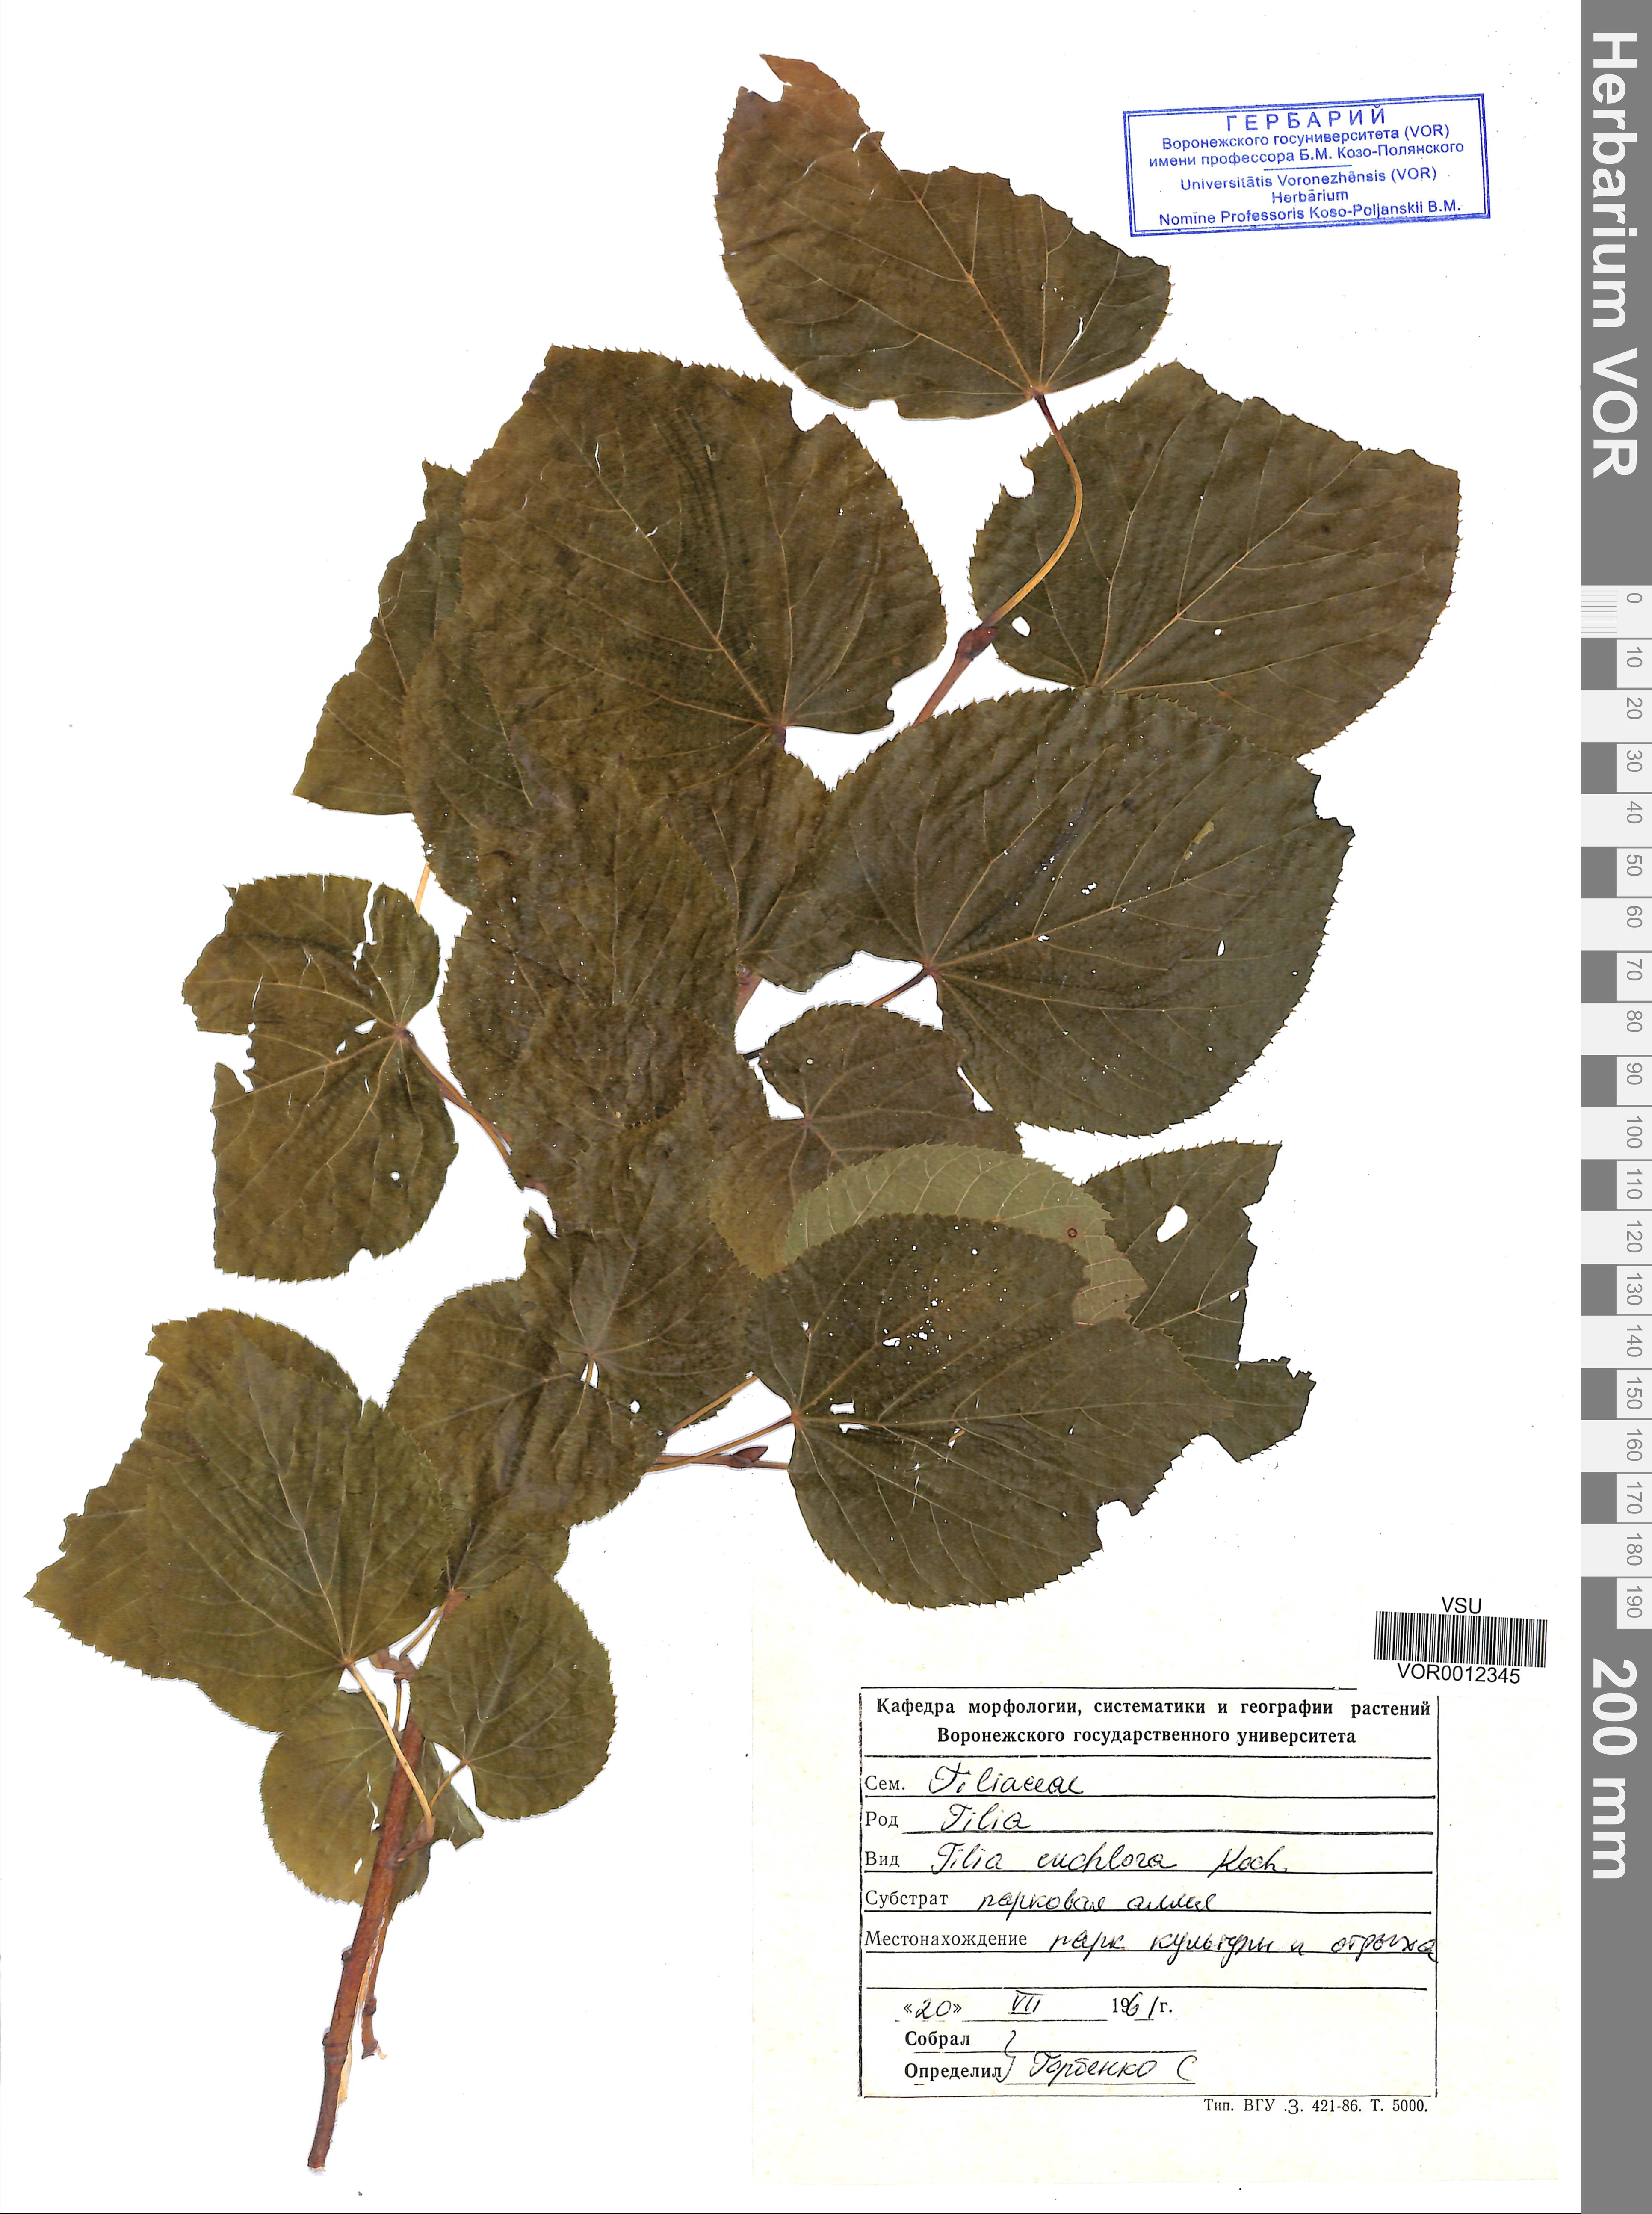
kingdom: Plantae
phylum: Tracheophyta
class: Magnoliopsida
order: Malvales
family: Malvaceae
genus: Tilia
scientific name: Tilia euchlora
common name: Caucasian lime
